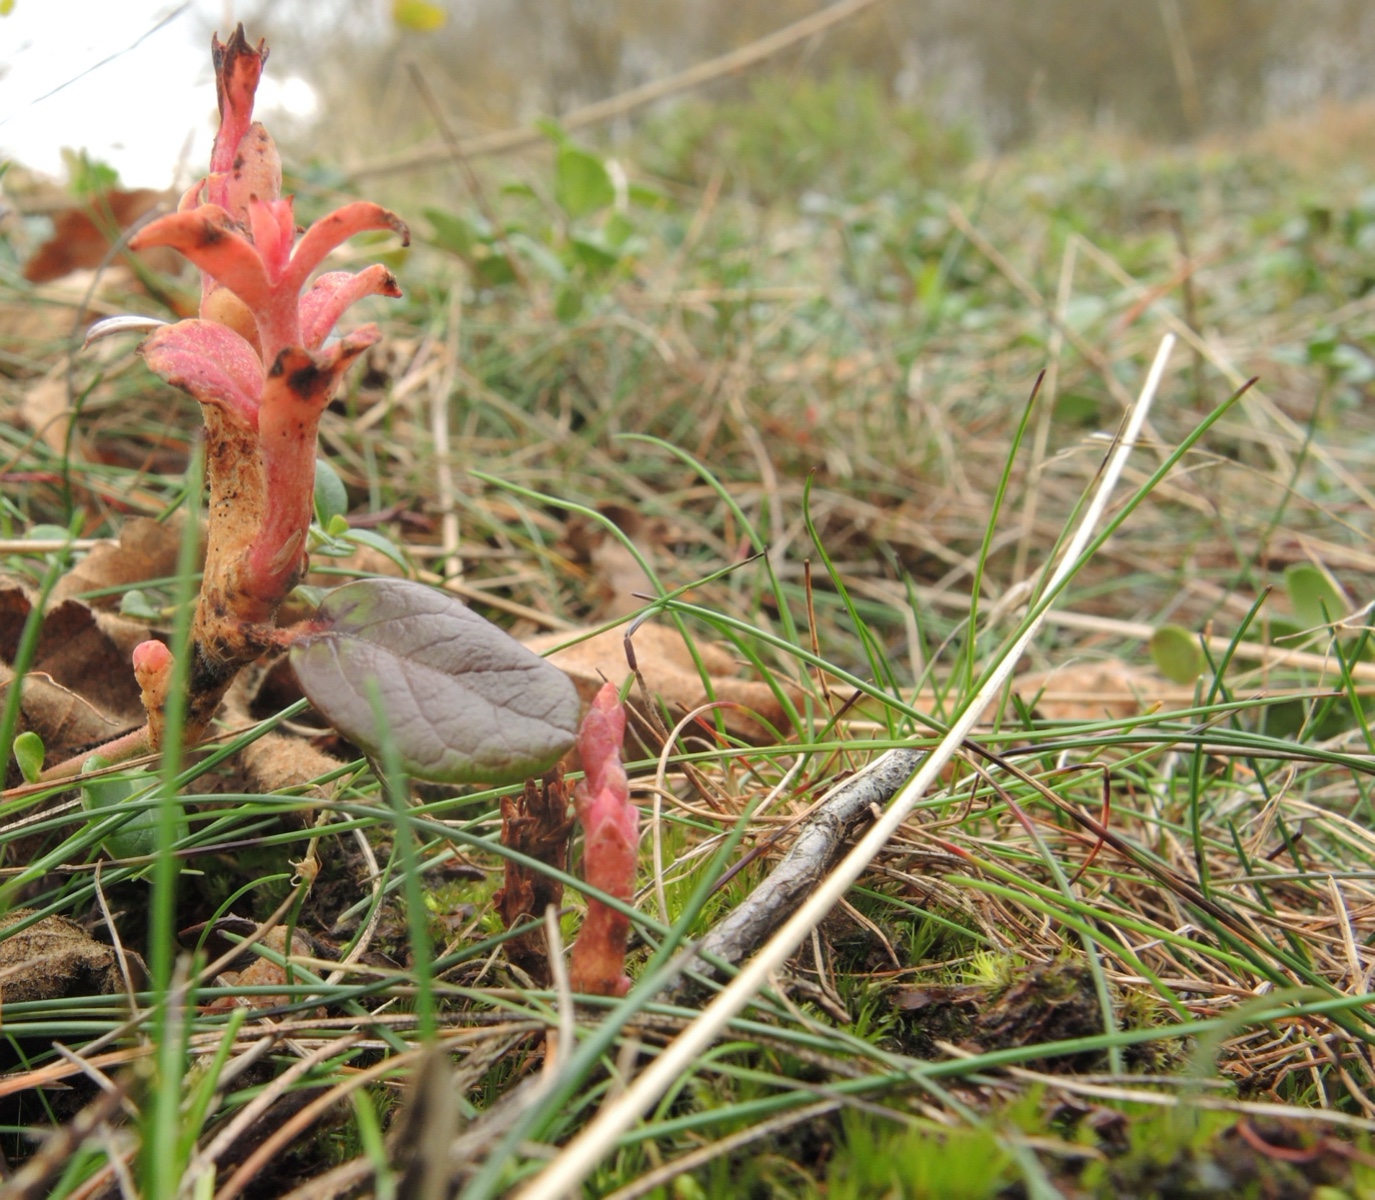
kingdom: Fungi
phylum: Basidiomycota
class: Exobasidiomycetes
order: Exobasidiales
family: Exobasidiaceae
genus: Exobasidium
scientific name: Exobasidium vaccinii
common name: tyttebærblad-bøllesvamp
